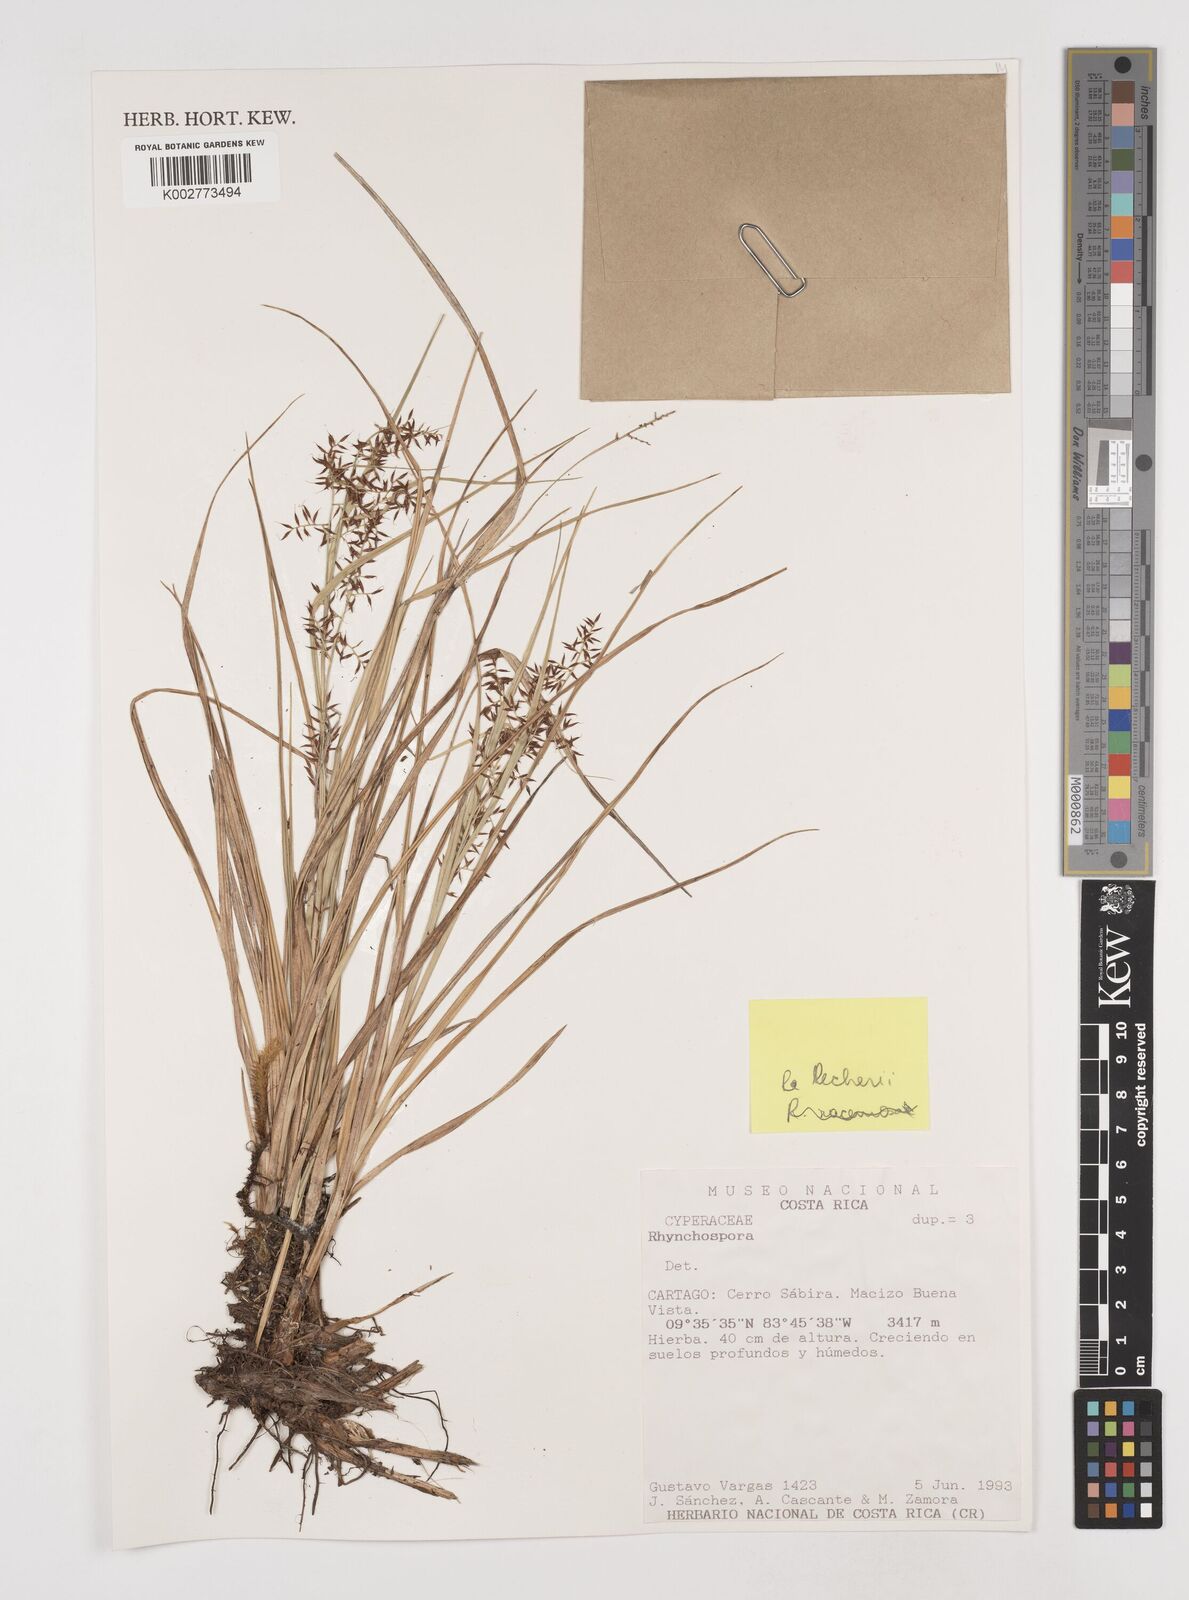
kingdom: Plantae
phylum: Tracheophyta
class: Liliopsida
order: Poales
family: Cyperaceae
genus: Rhynchospora
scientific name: Rhynchospora
